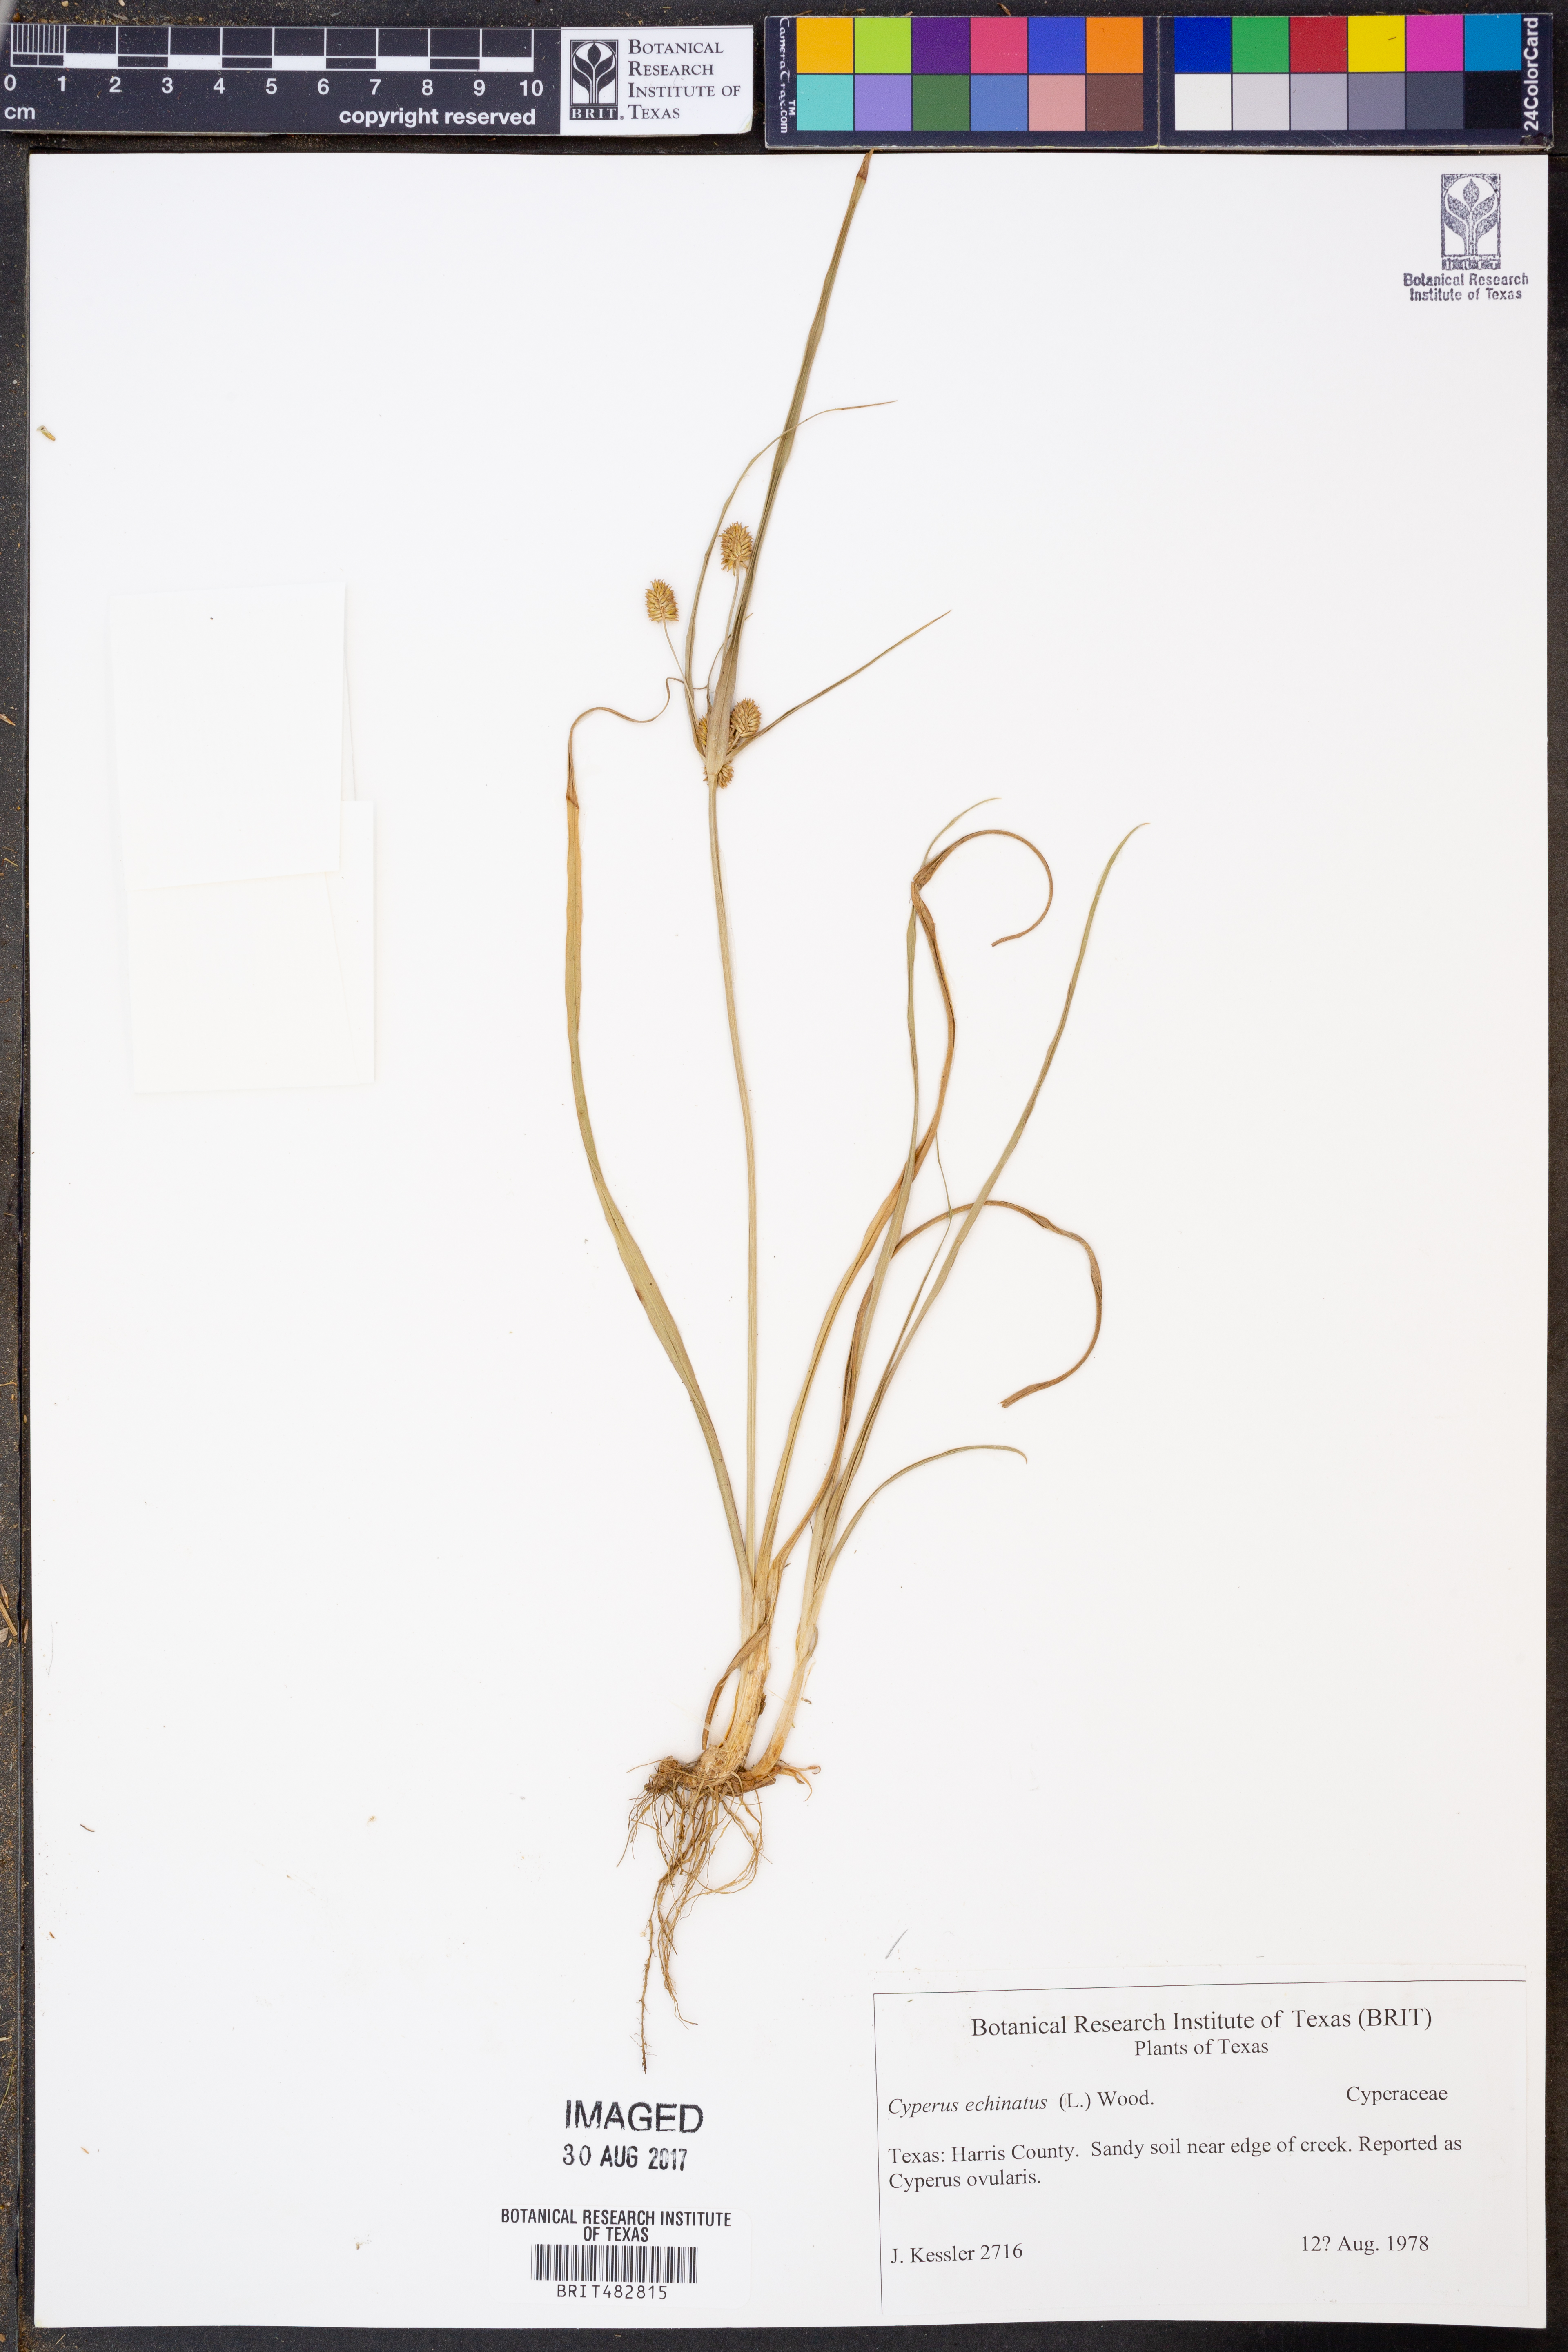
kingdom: Plantae
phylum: Tracheophyta
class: Liliopsida
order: Poales
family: Cyperaceae
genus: Cyperus
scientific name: Cyperus echinatus
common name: Teasel sedge
